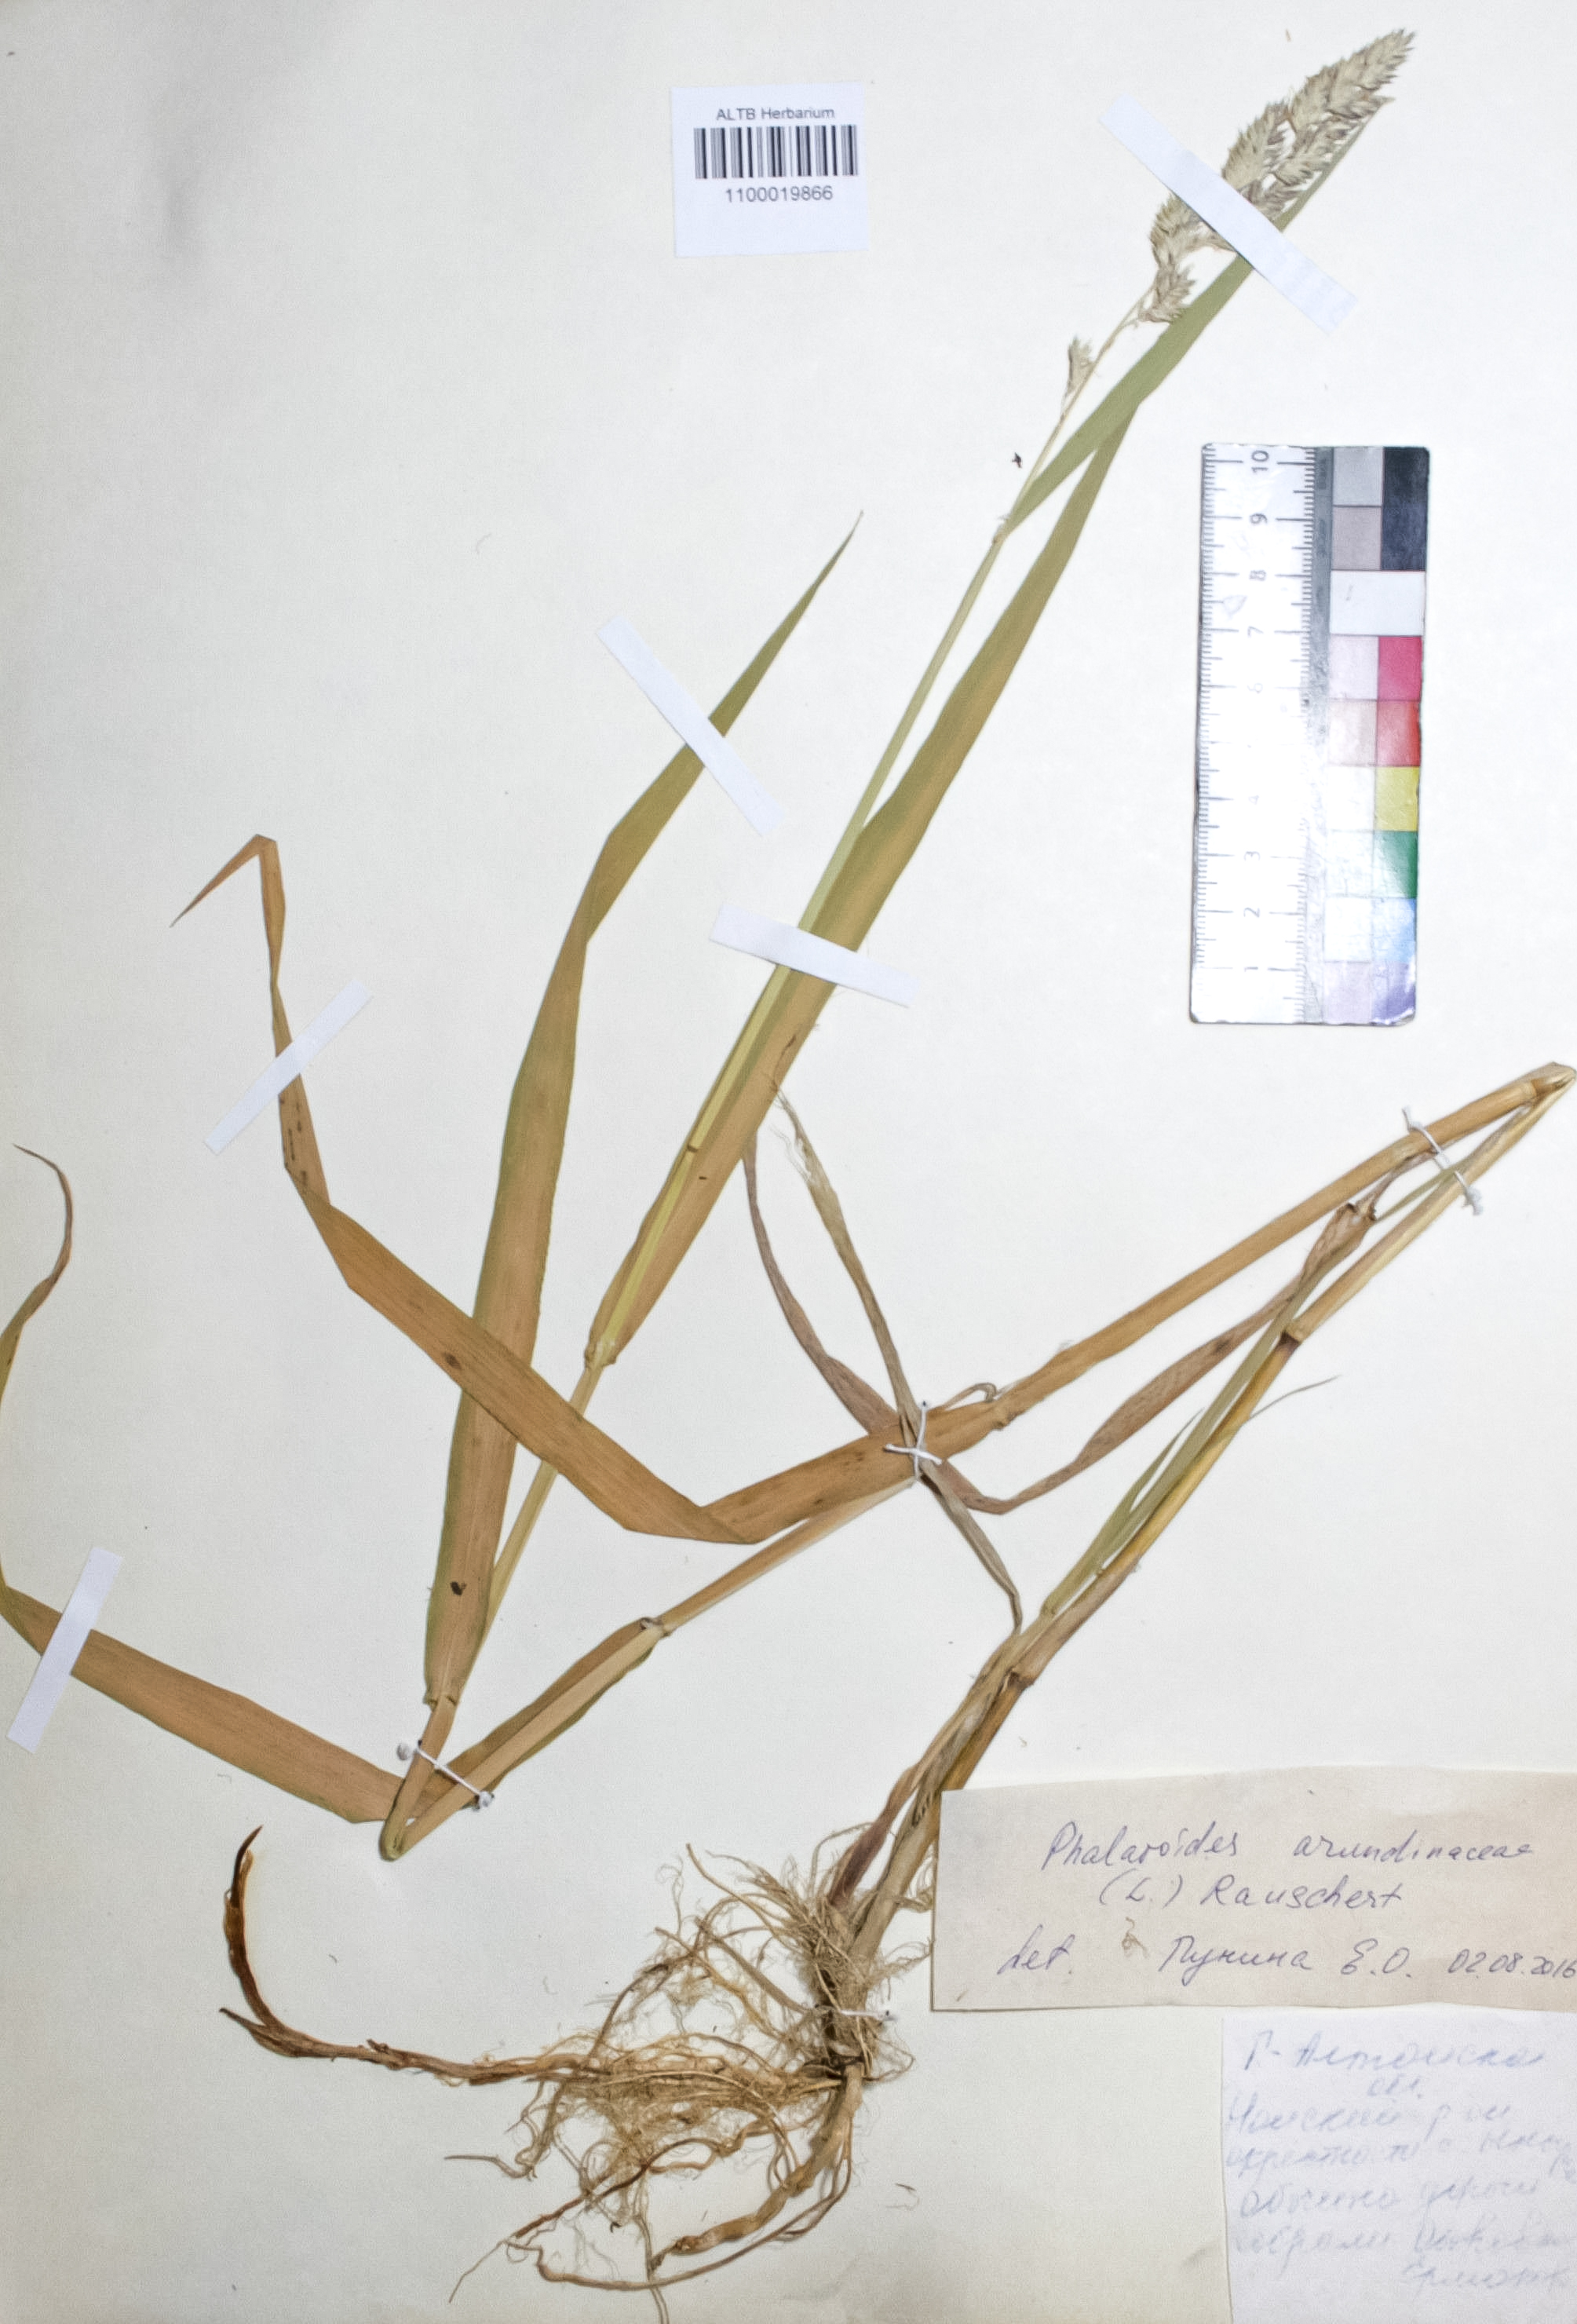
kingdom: Plantae
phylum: Tracheophyta
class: Liliopsida
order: Poales
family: Poaceae
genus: Phalaris
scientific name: Phalaris arundinacea
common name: Reed canary-grass
